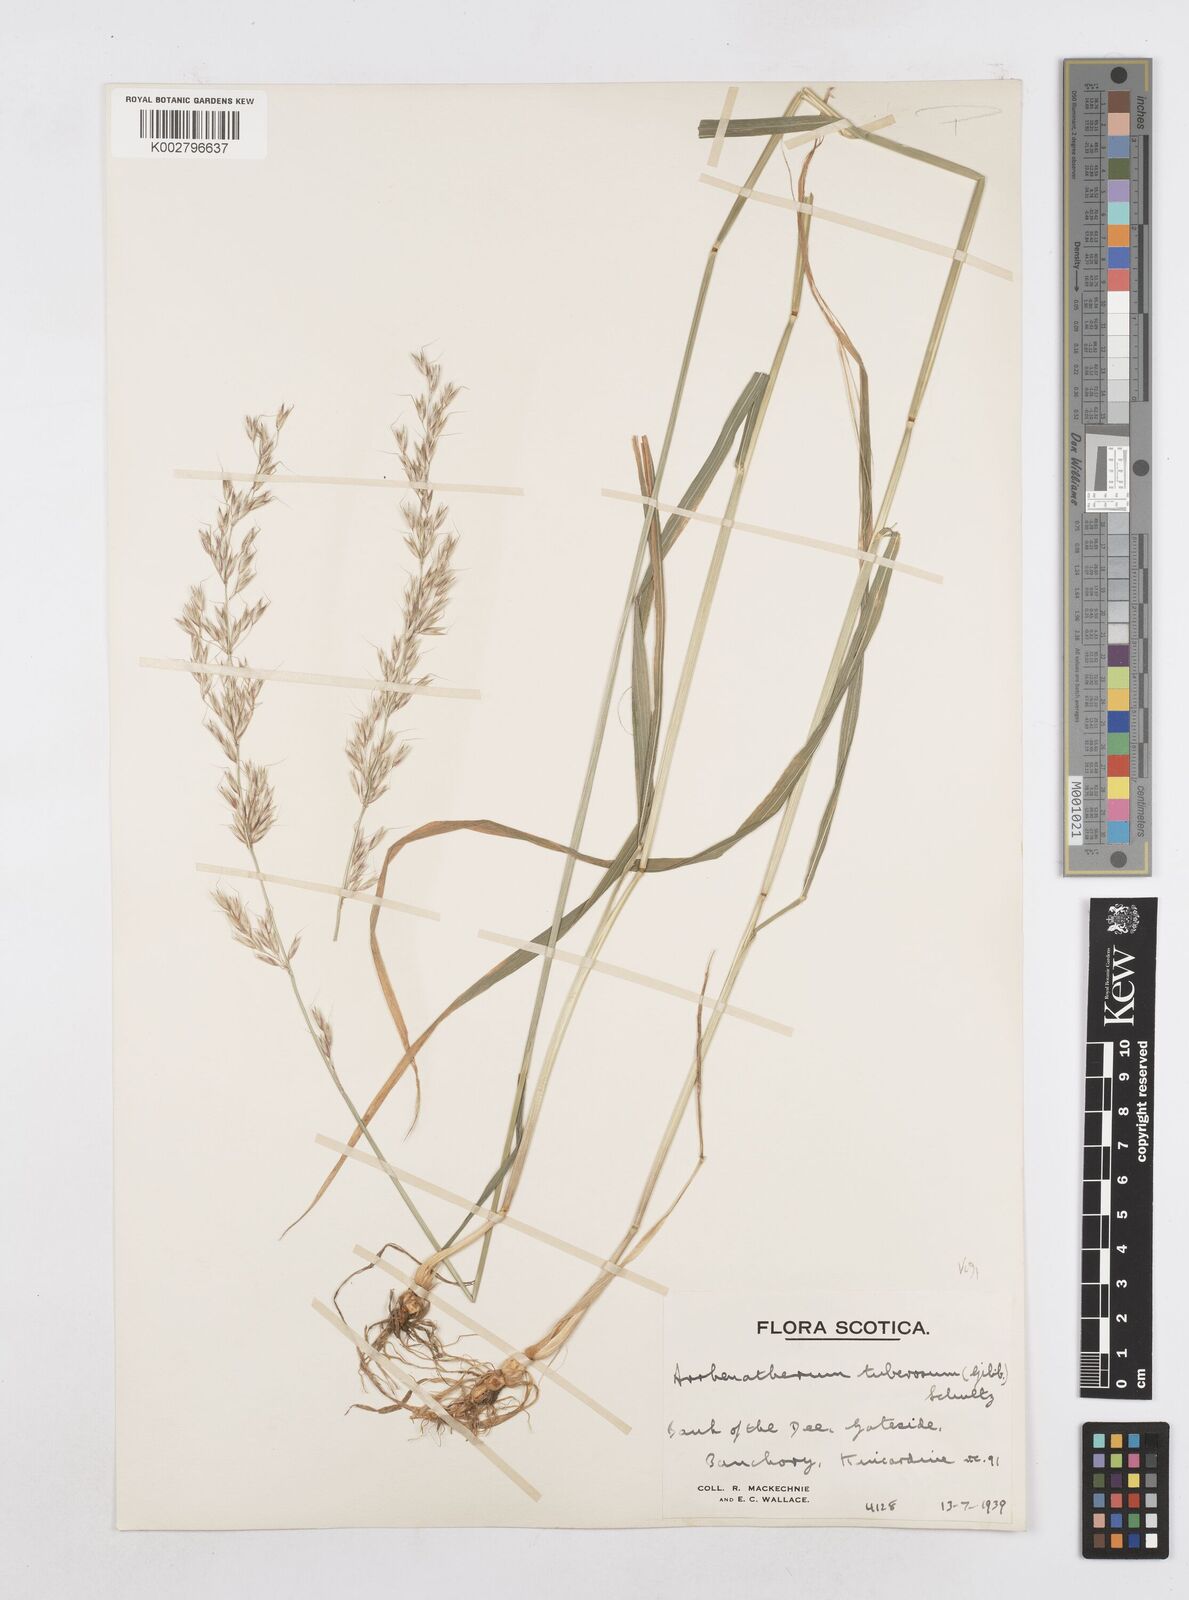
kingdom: Plantae
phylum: Tracheophyta
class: Liliopsida
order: Poales
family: Poaceae
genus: Arrhenatherum
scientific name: Arrhenatherum elatius
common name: Tall oatgrass
